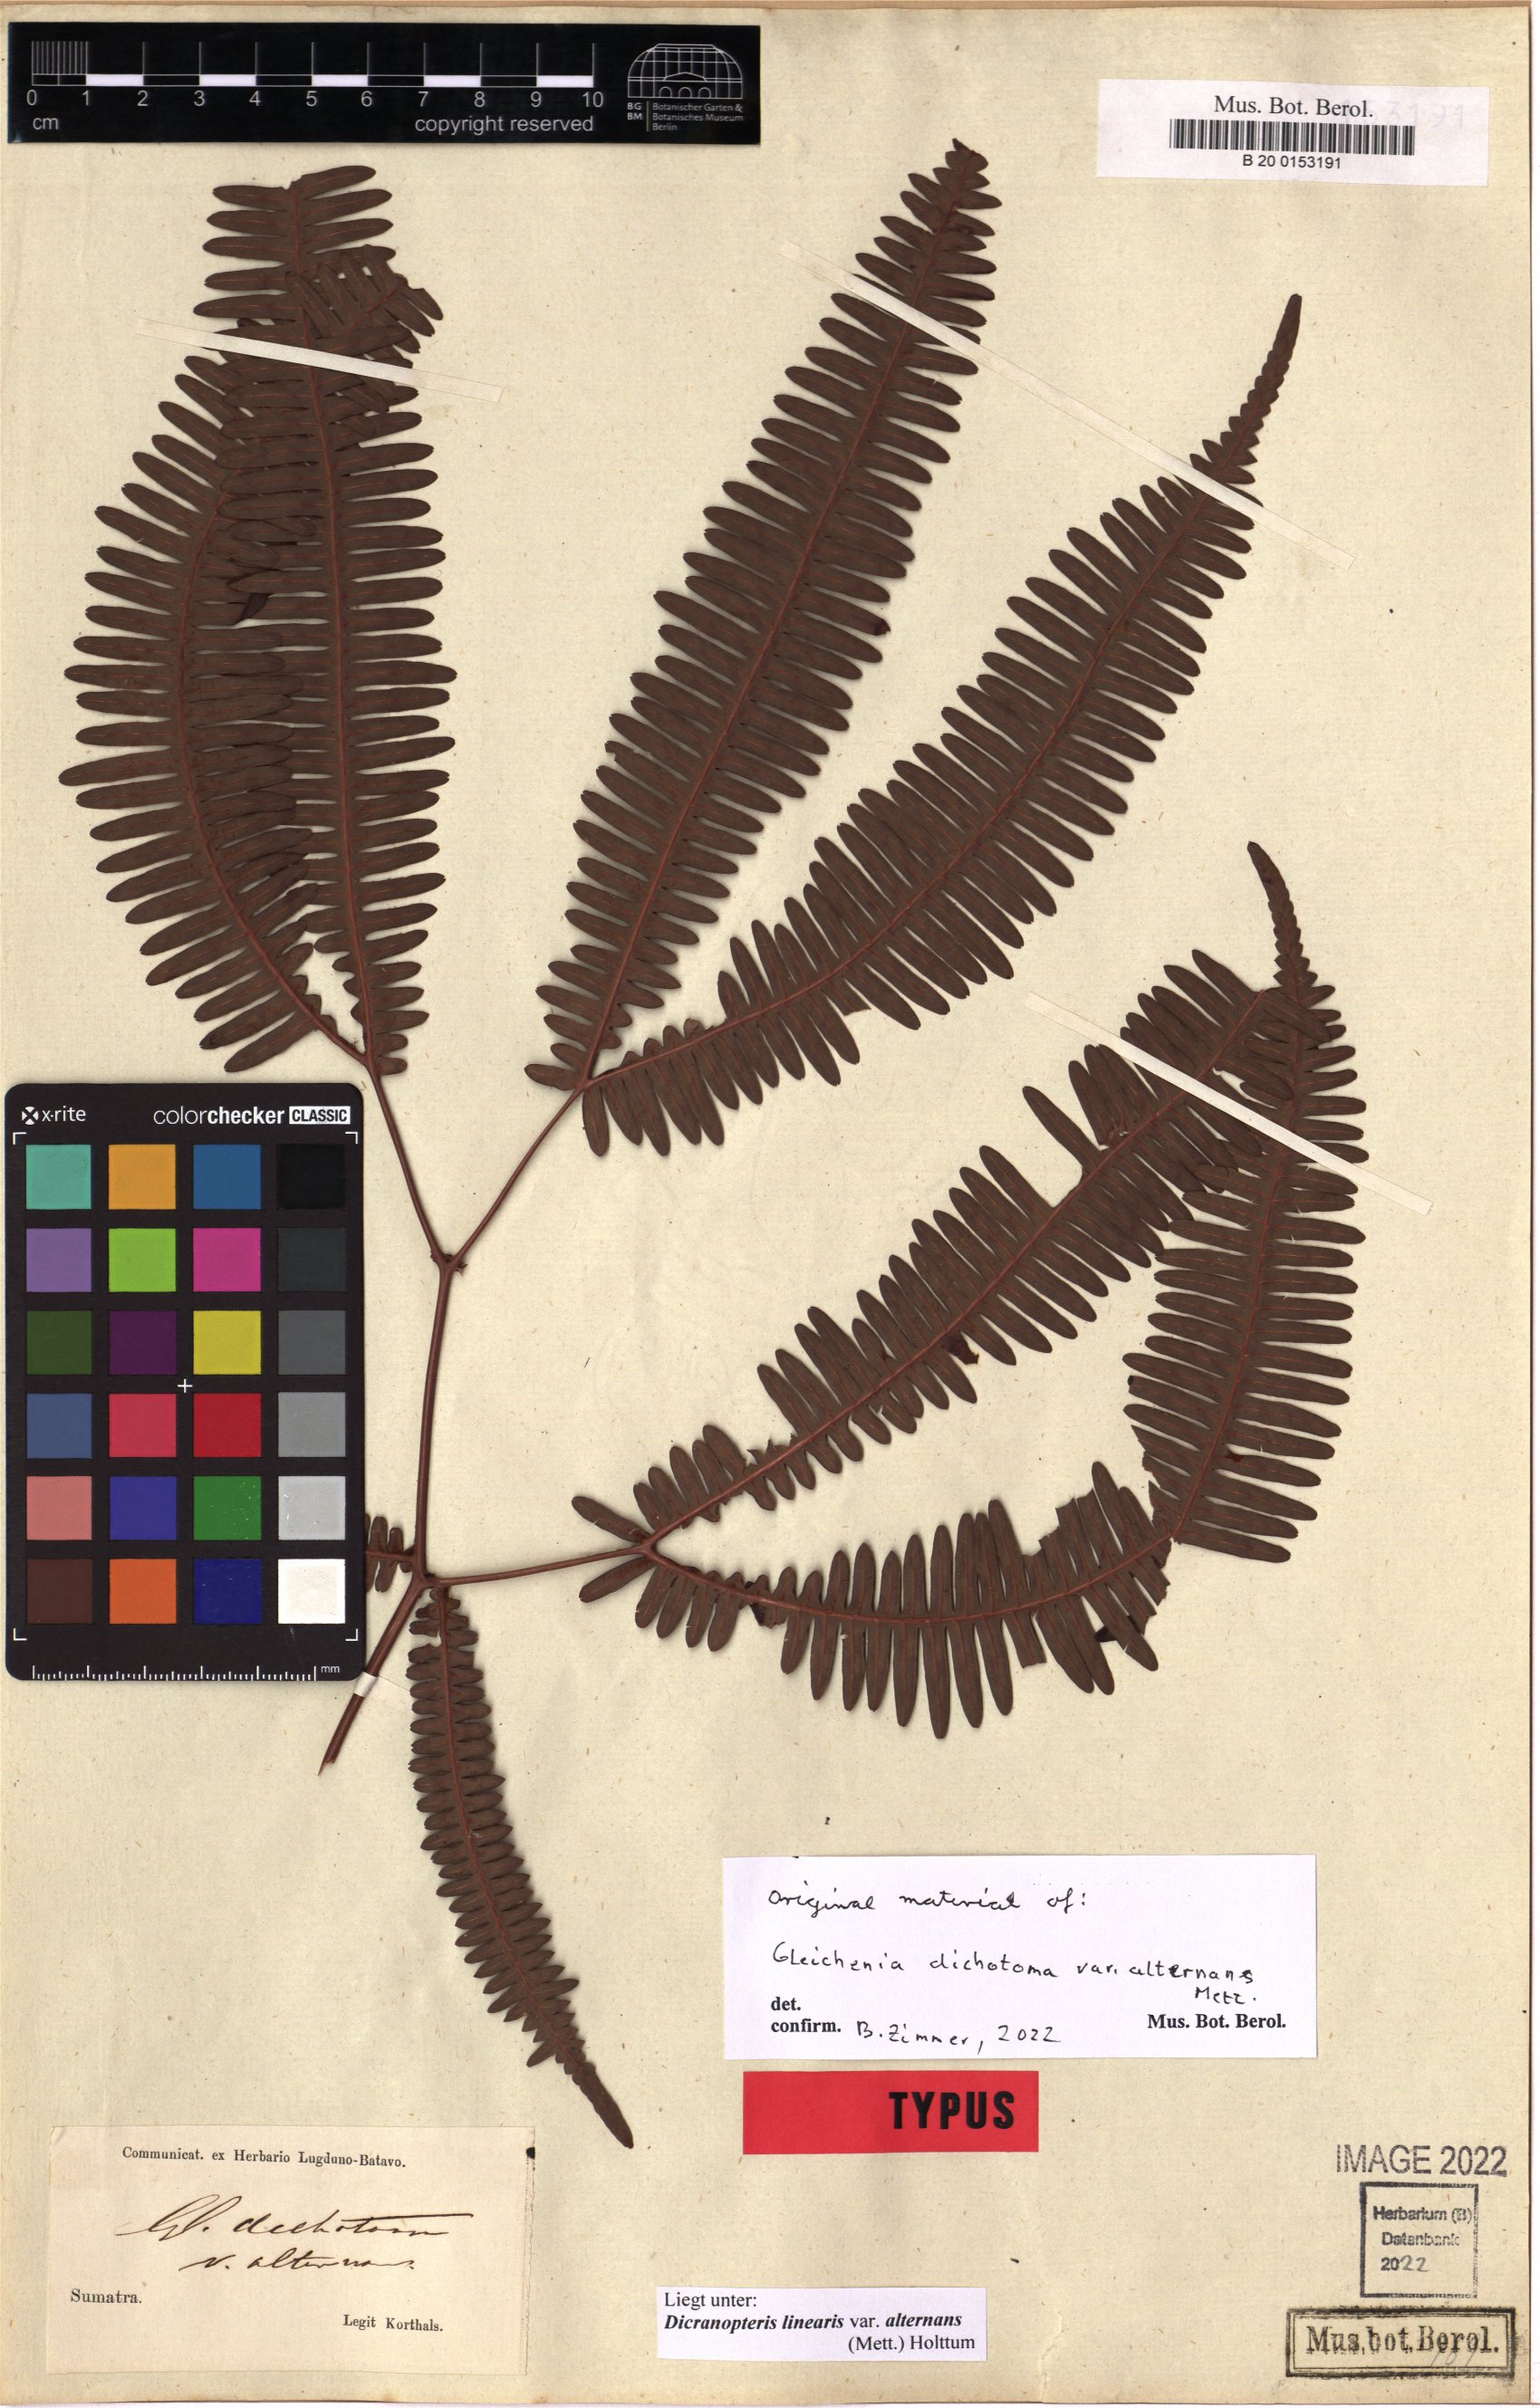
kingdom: Plantae
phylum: Tracheophyta
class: Polypodiopsida
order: Gleicheniales
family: Gleicheniaceae
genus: Dicranopteris
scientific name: Dicranopteris linearis
